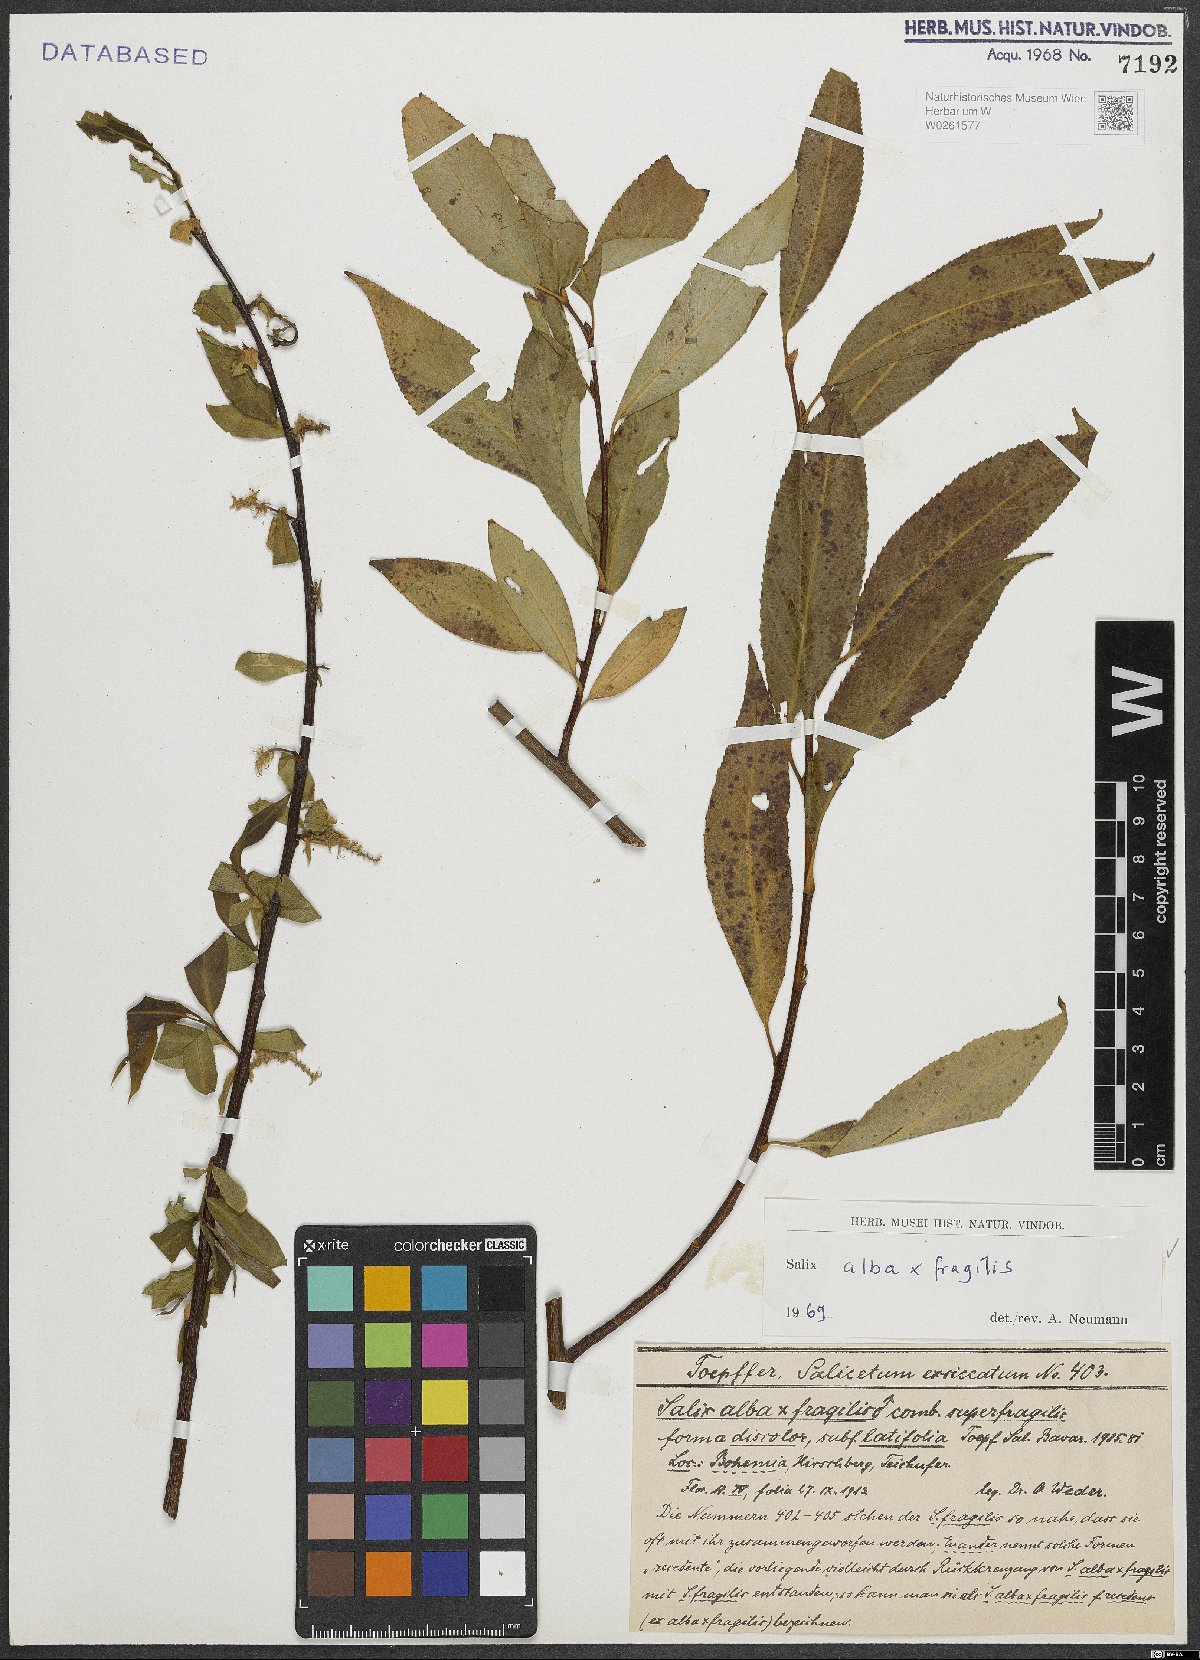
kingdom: Plantae
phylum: Tracheophyta
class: Magnoliopsida
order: Malpighiales
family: Salicaceae
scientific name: Salicaceae
